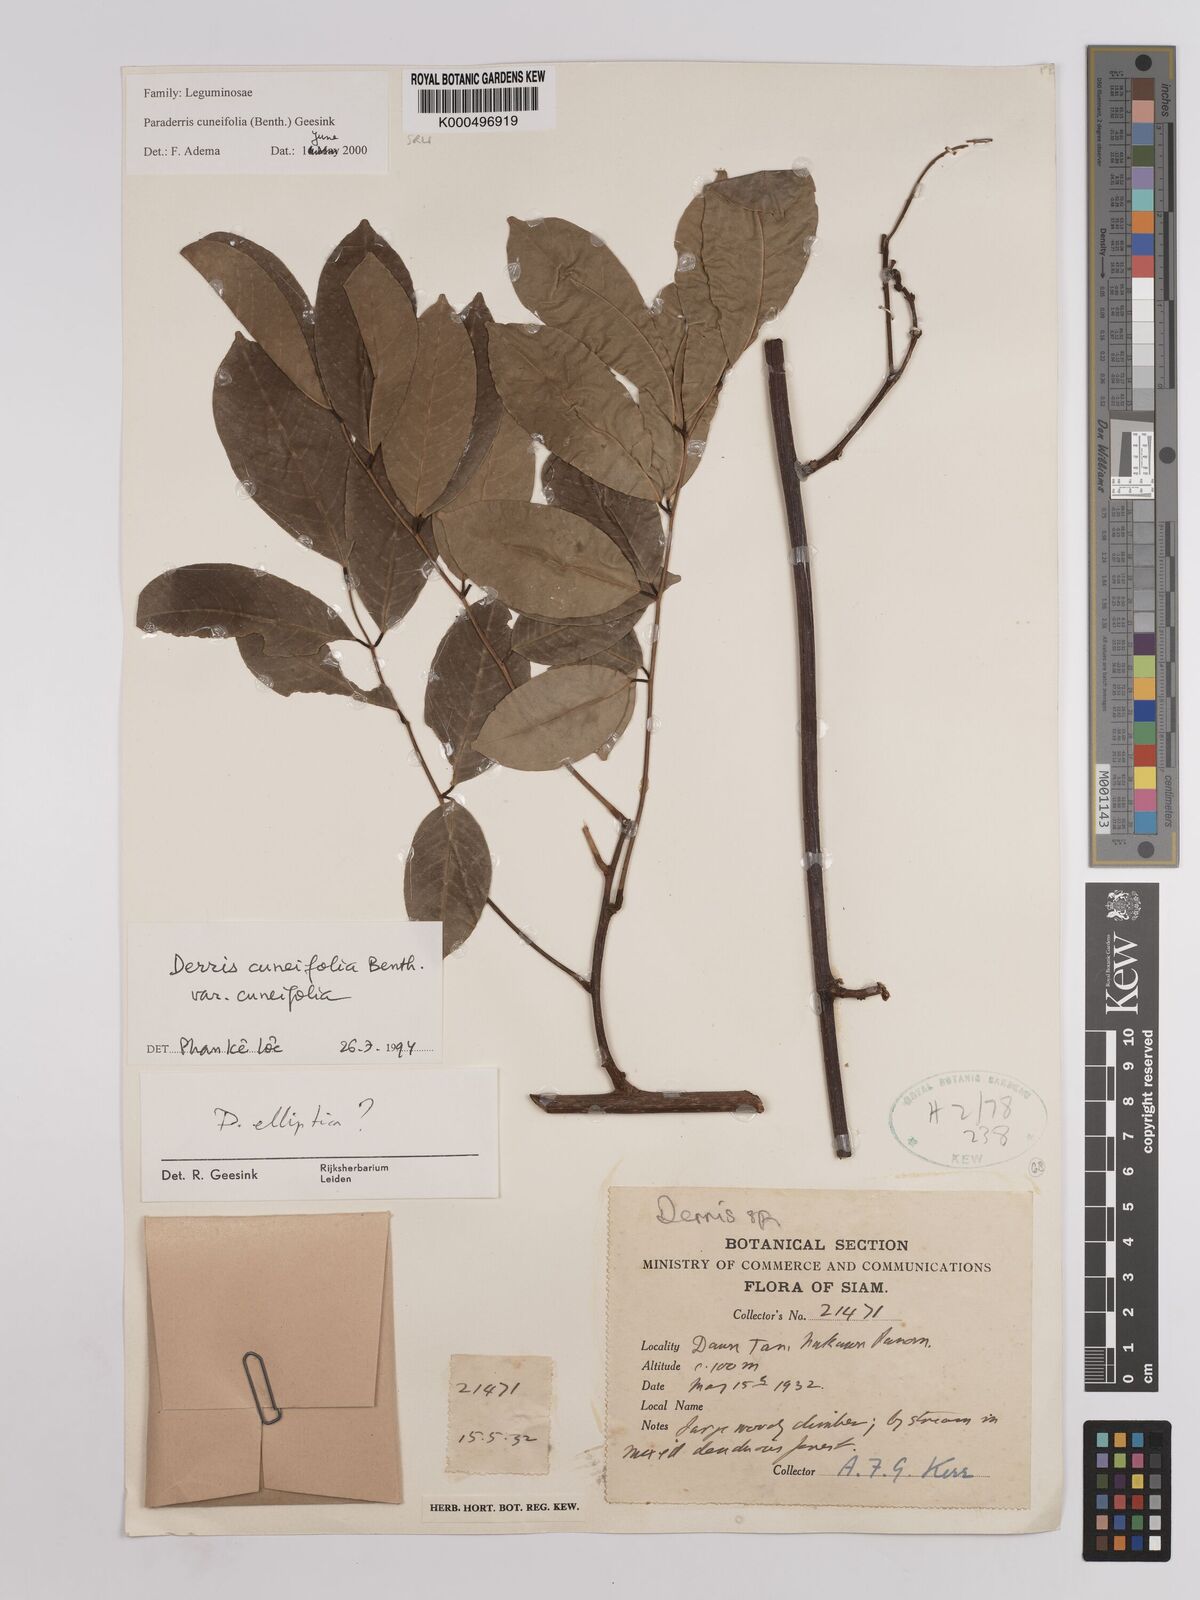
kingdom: Plantae
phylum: Tracheophyta
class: Magnoliopsida
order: Fabales
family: Fabaceae
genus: Derris
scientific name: Derris cuneifolia
